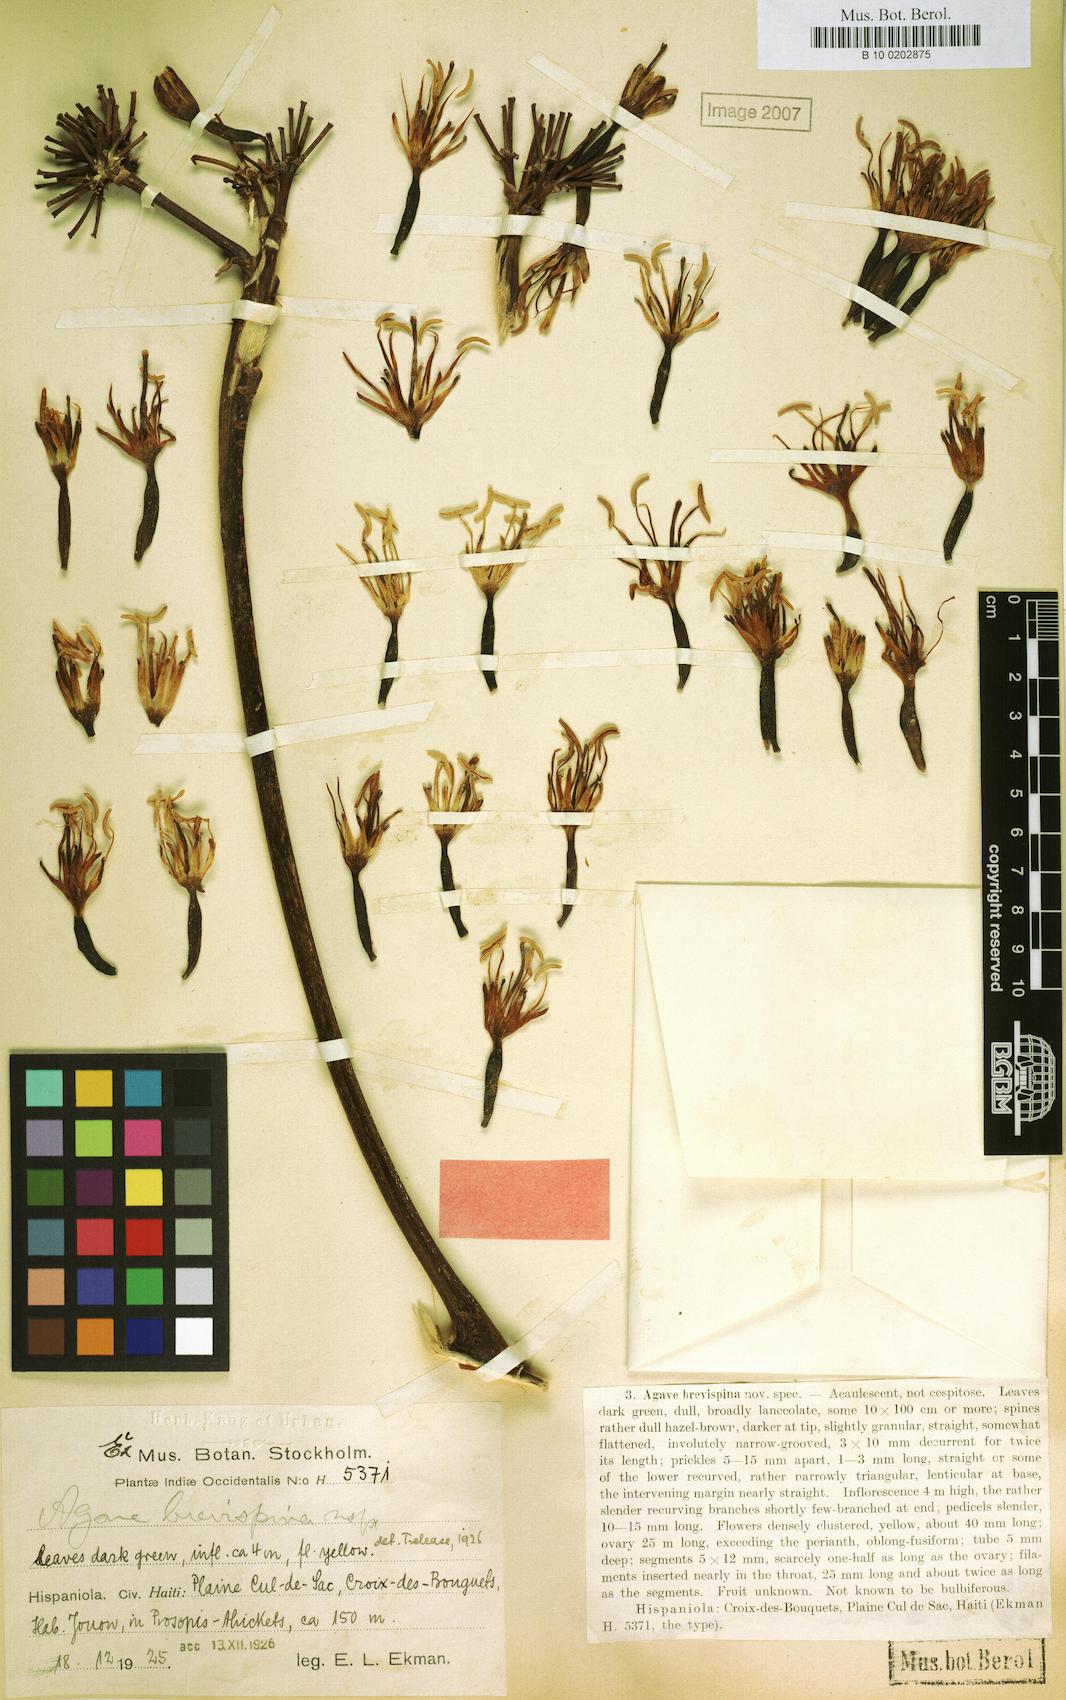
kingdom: Plantae
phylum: Tracheophyta
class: Liliopsida
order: Asparagales
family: Asparagaceae
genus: Agave
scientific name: Agave brevispina
